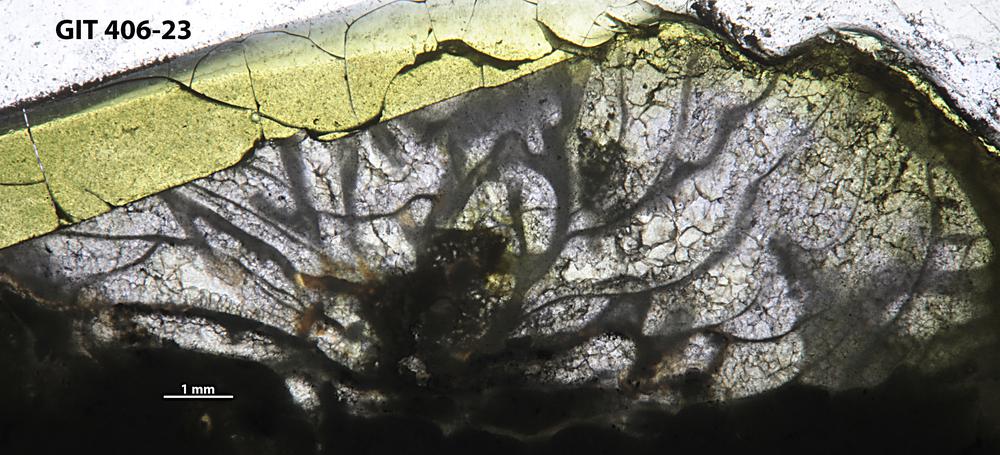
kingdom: Animalia
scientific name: Animalia
